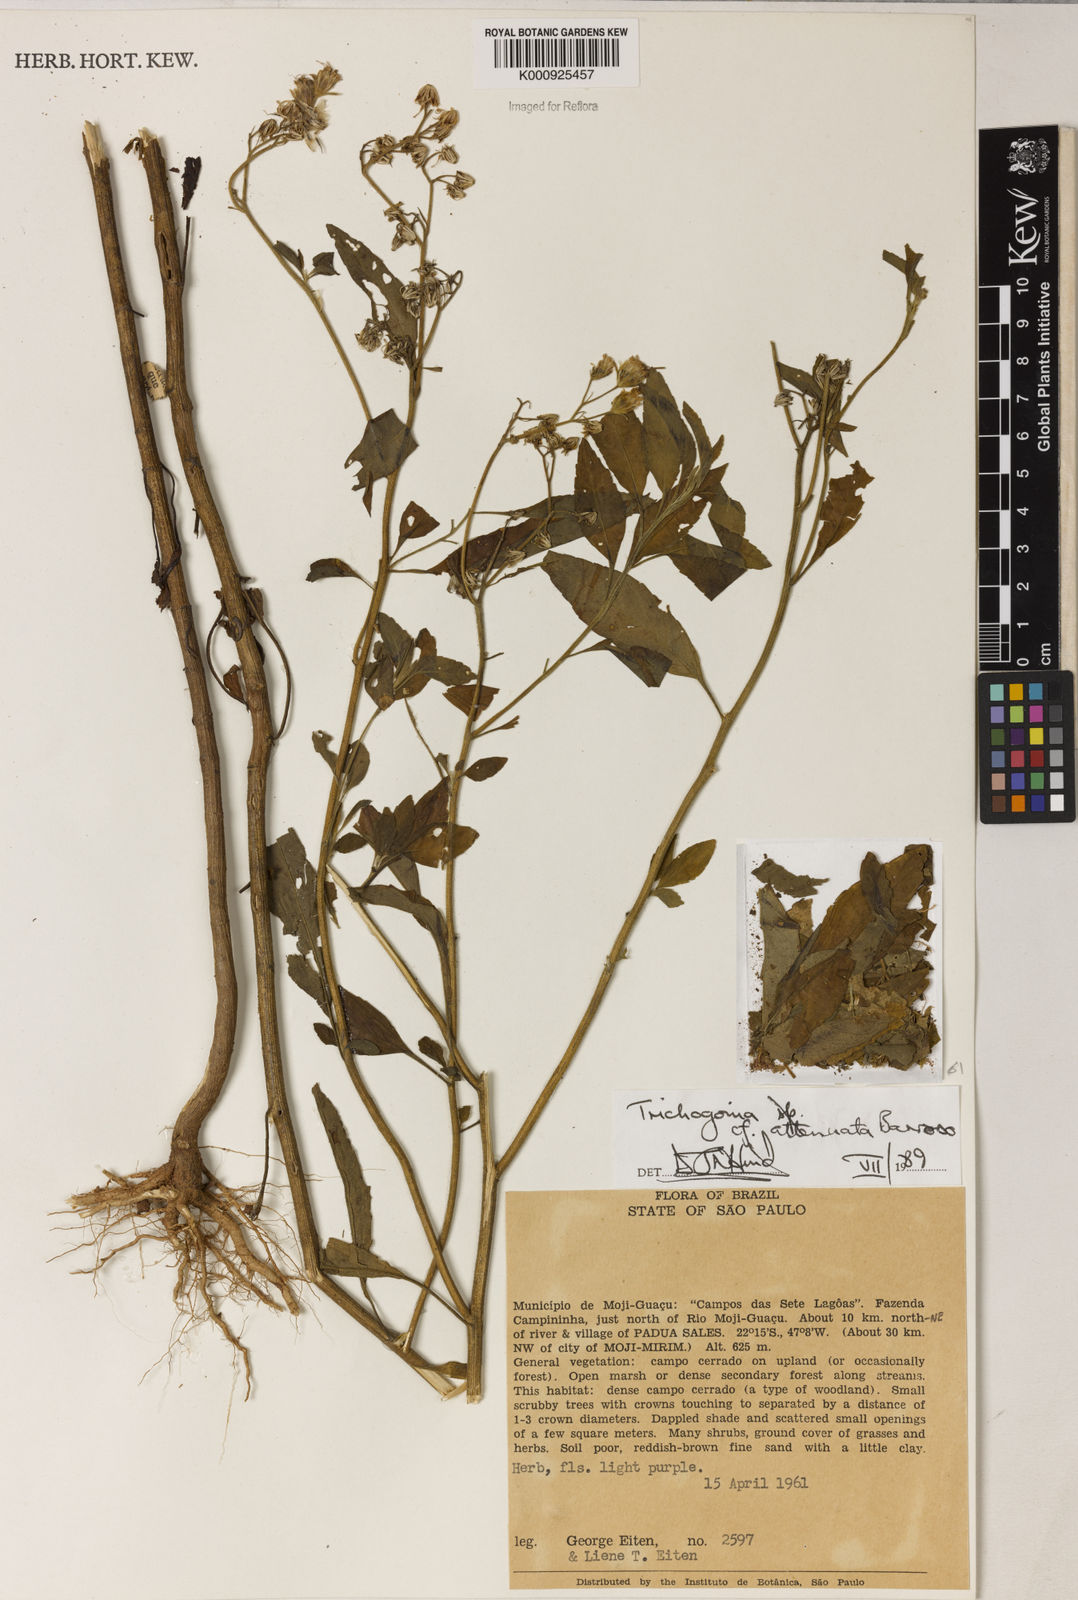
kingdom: Plantae
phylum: Tracheophyta
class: Magnoliopsida
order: Asterales
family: Asteraceae
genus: Trichogonia
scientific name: Trichogonia attenuata
